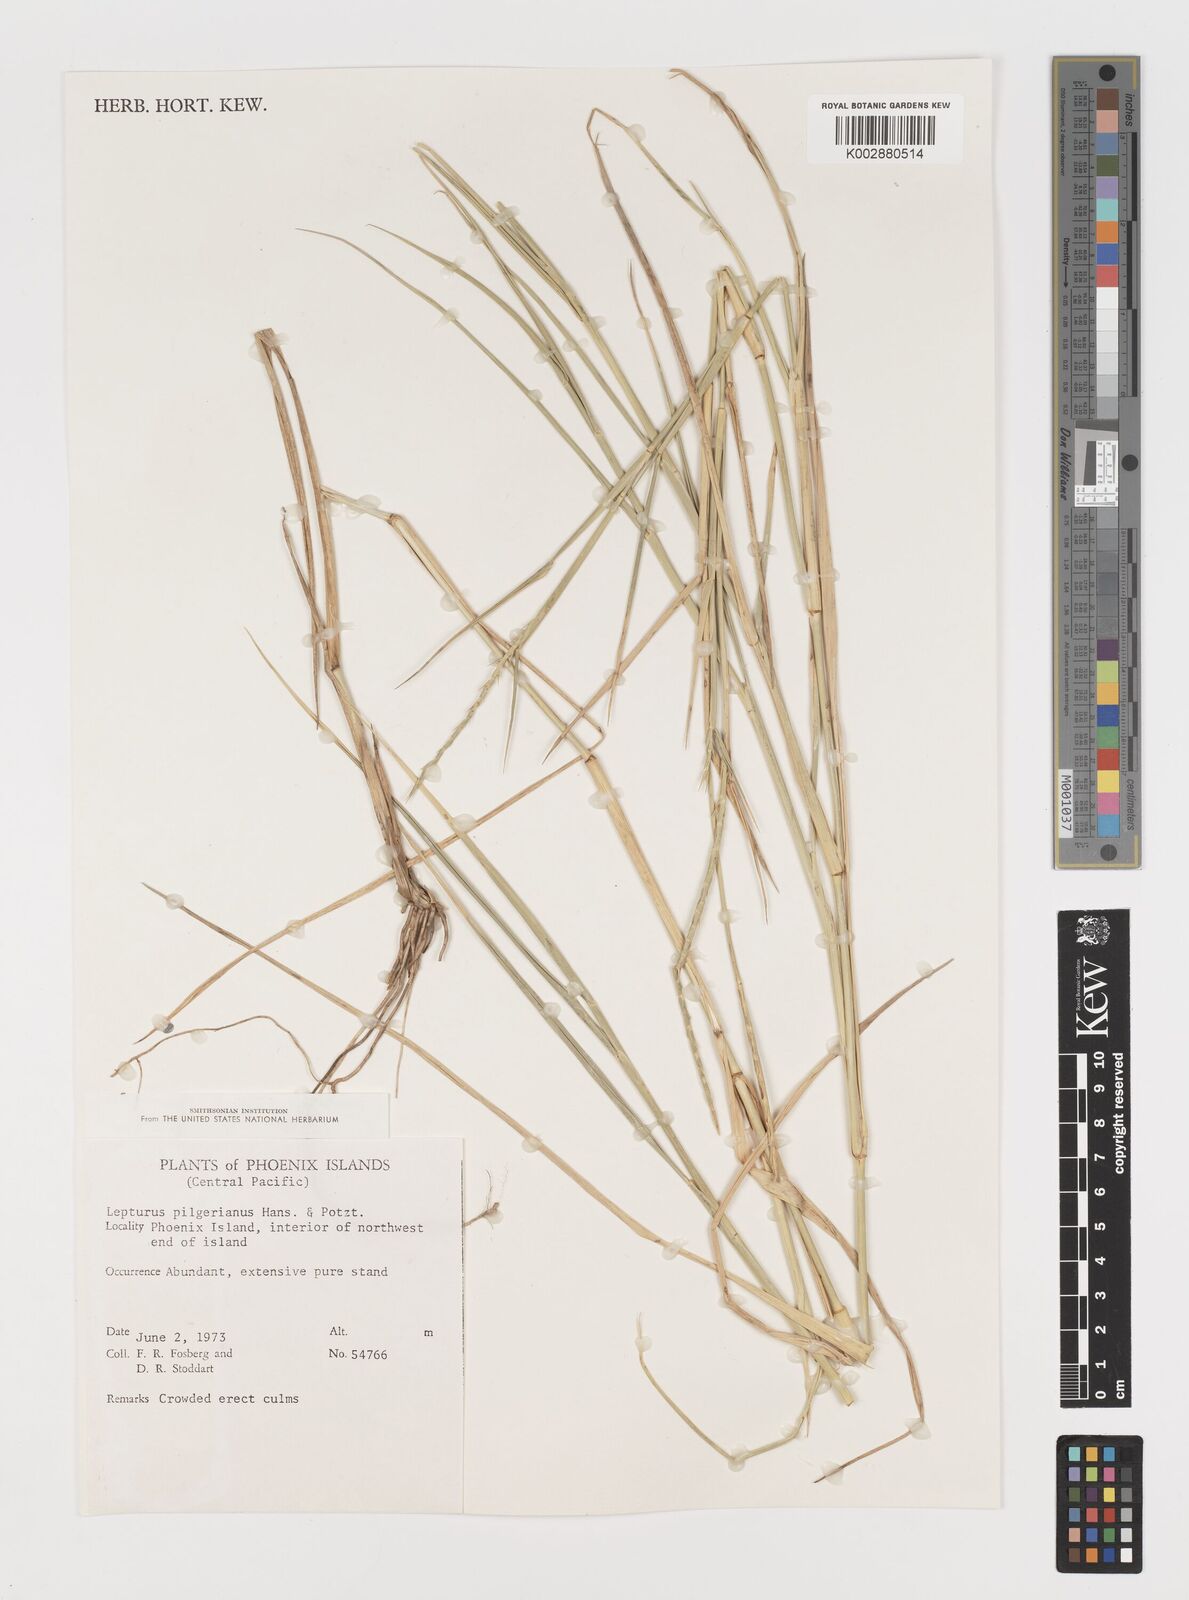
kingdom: Plantae
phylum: Tracheophyta
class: Liliopsida
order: Poales
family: Poaceae
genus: Lepturus
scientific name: Lepturus repens
